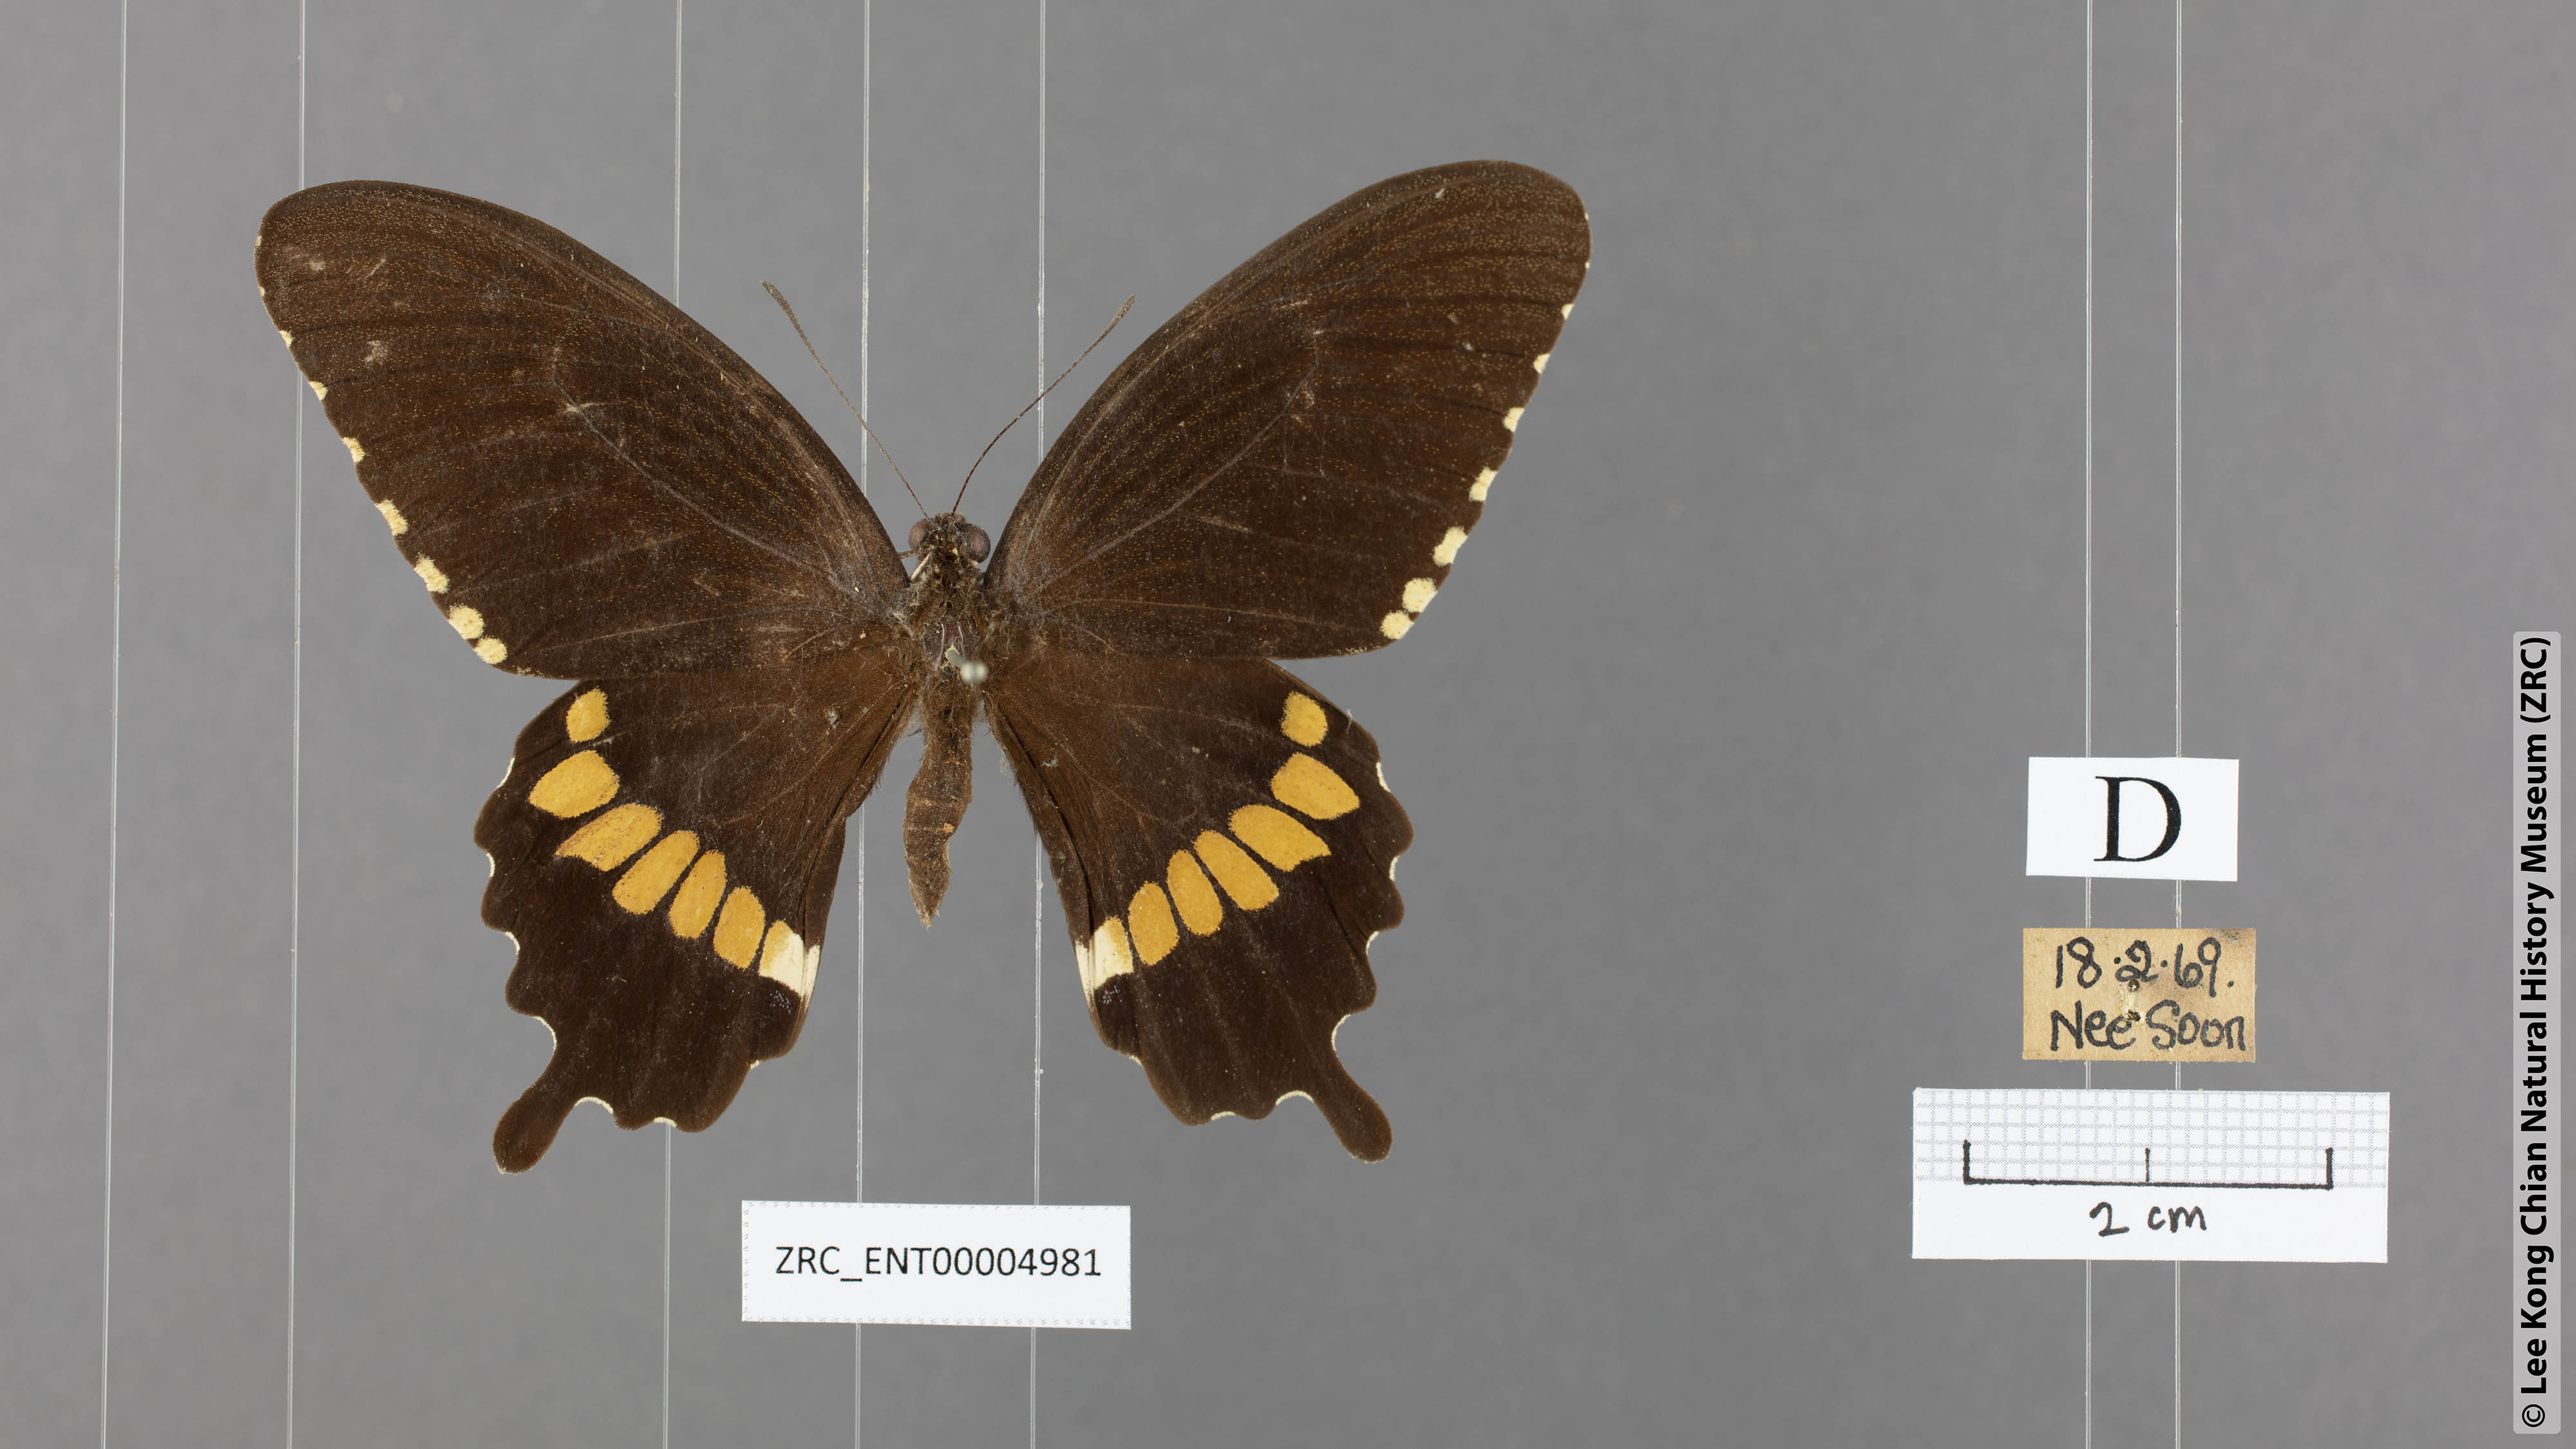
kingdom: Animalia
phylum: Arthropoda
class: Insecta
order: Lepidoptera
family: Papilionidae
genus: Papilio
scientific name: Papilio polytes
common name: Common mormon
